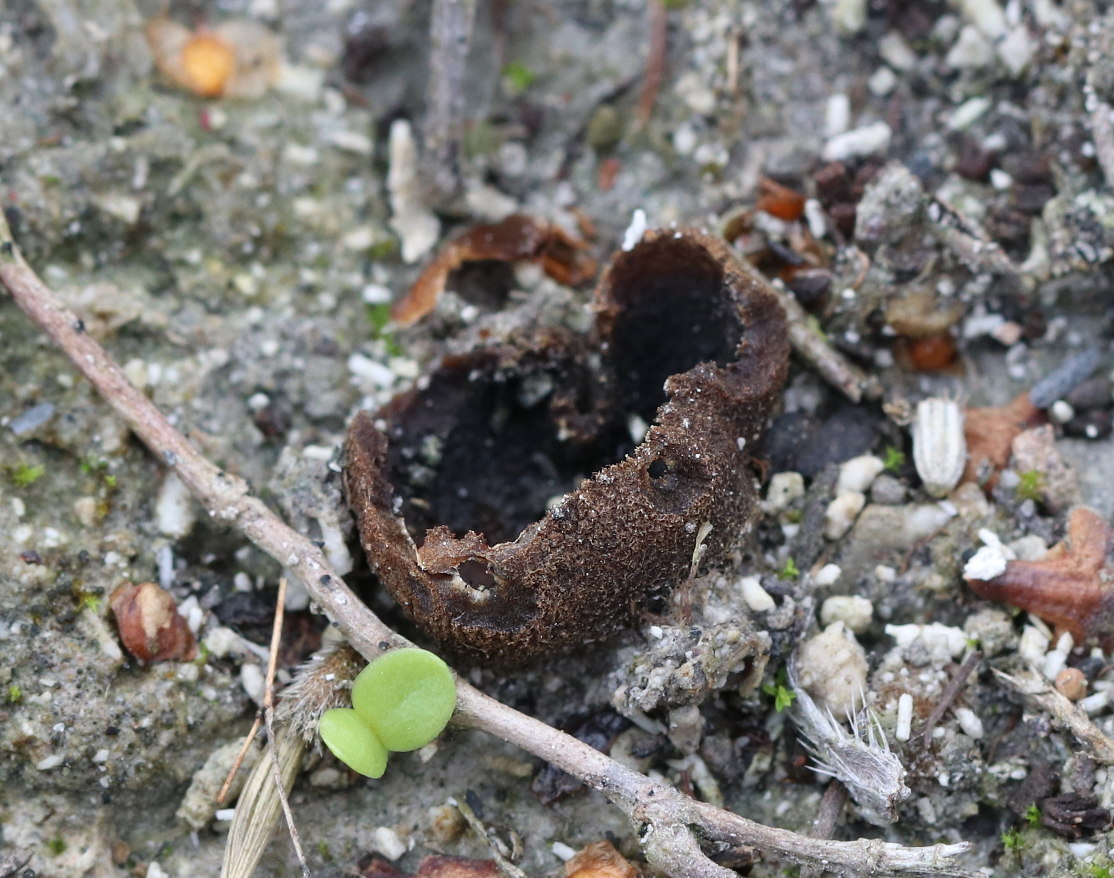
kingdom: Fungi
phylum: Ascomycota
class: Pezizomycetes
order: Pezizales
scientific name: Pezizales
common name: bægersvampordenen
